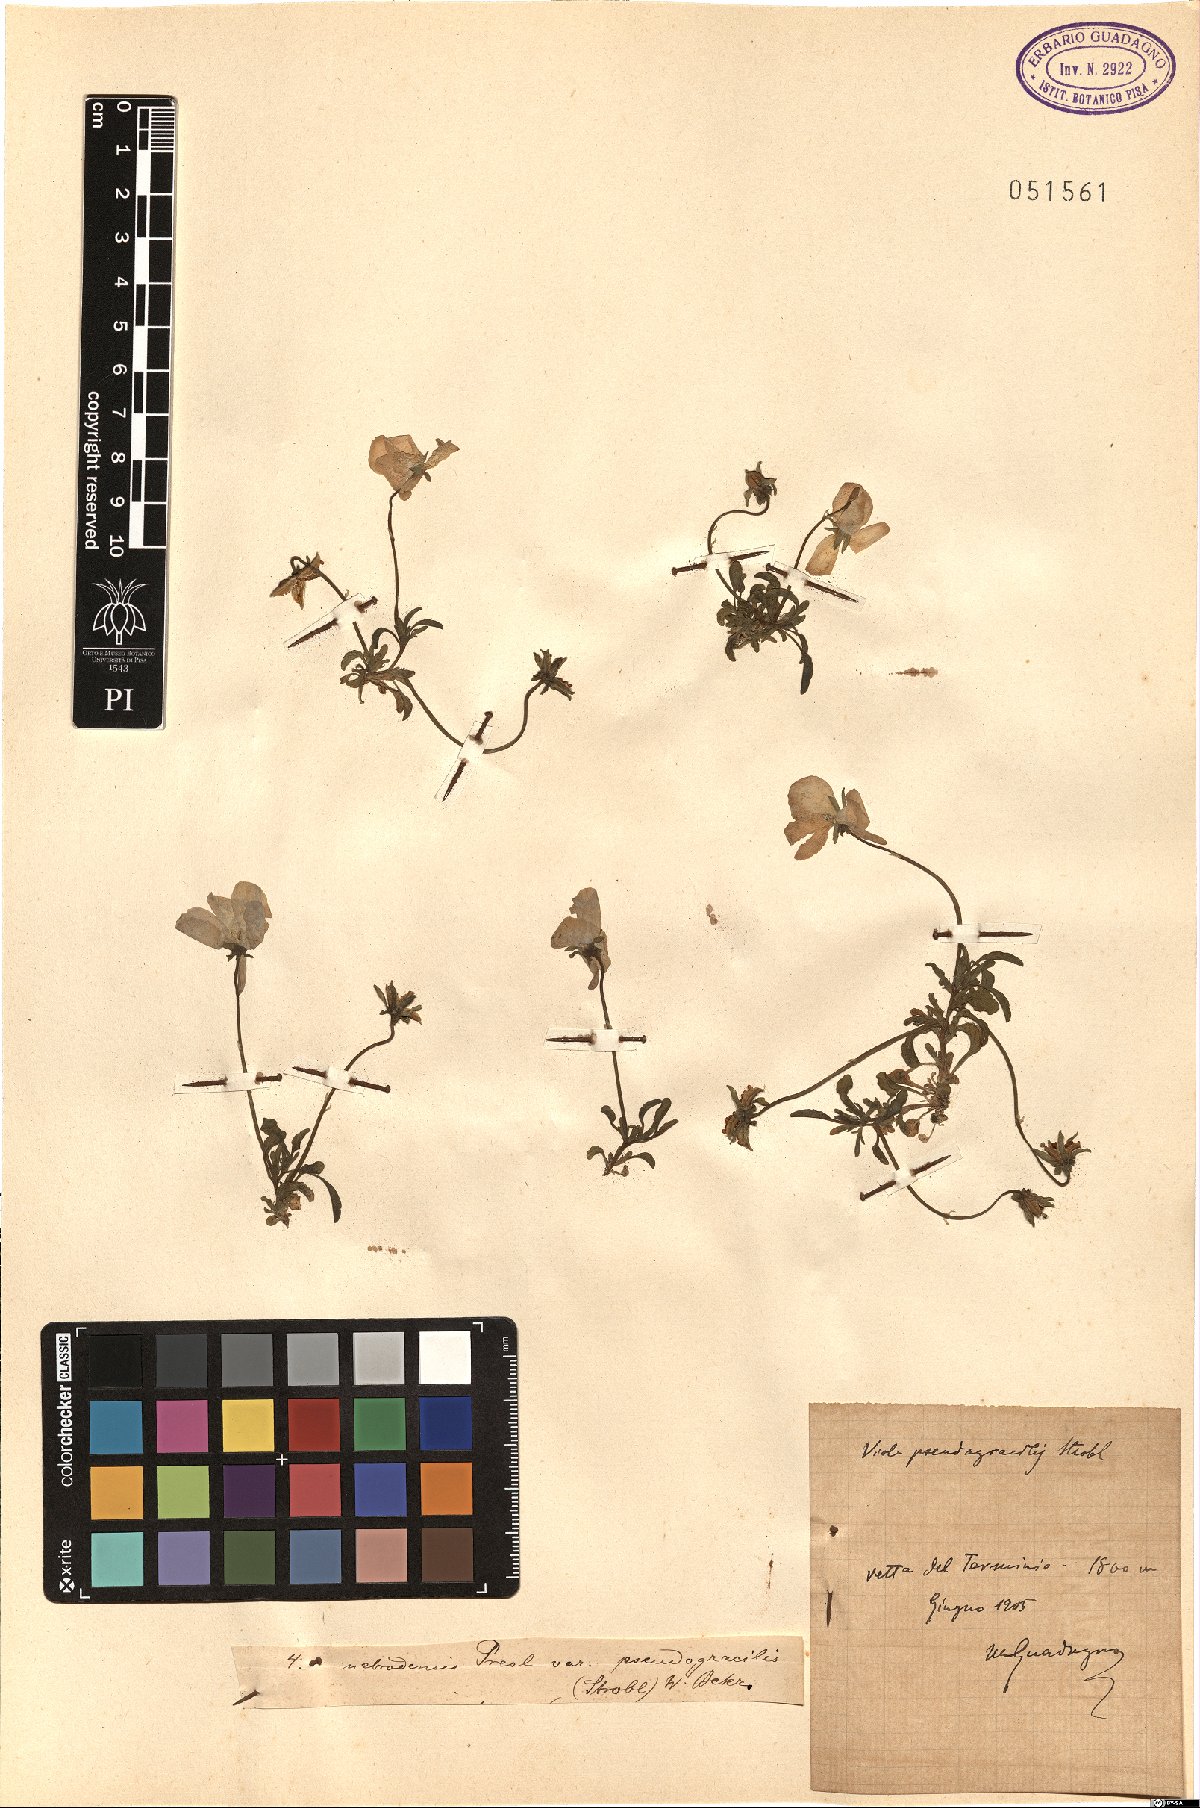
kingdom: Plantae
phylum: Tracheophyta
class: Magnoliopsida
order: Malpighiales
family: Violaceae
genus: Viola
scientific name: Viola nebrodensis
